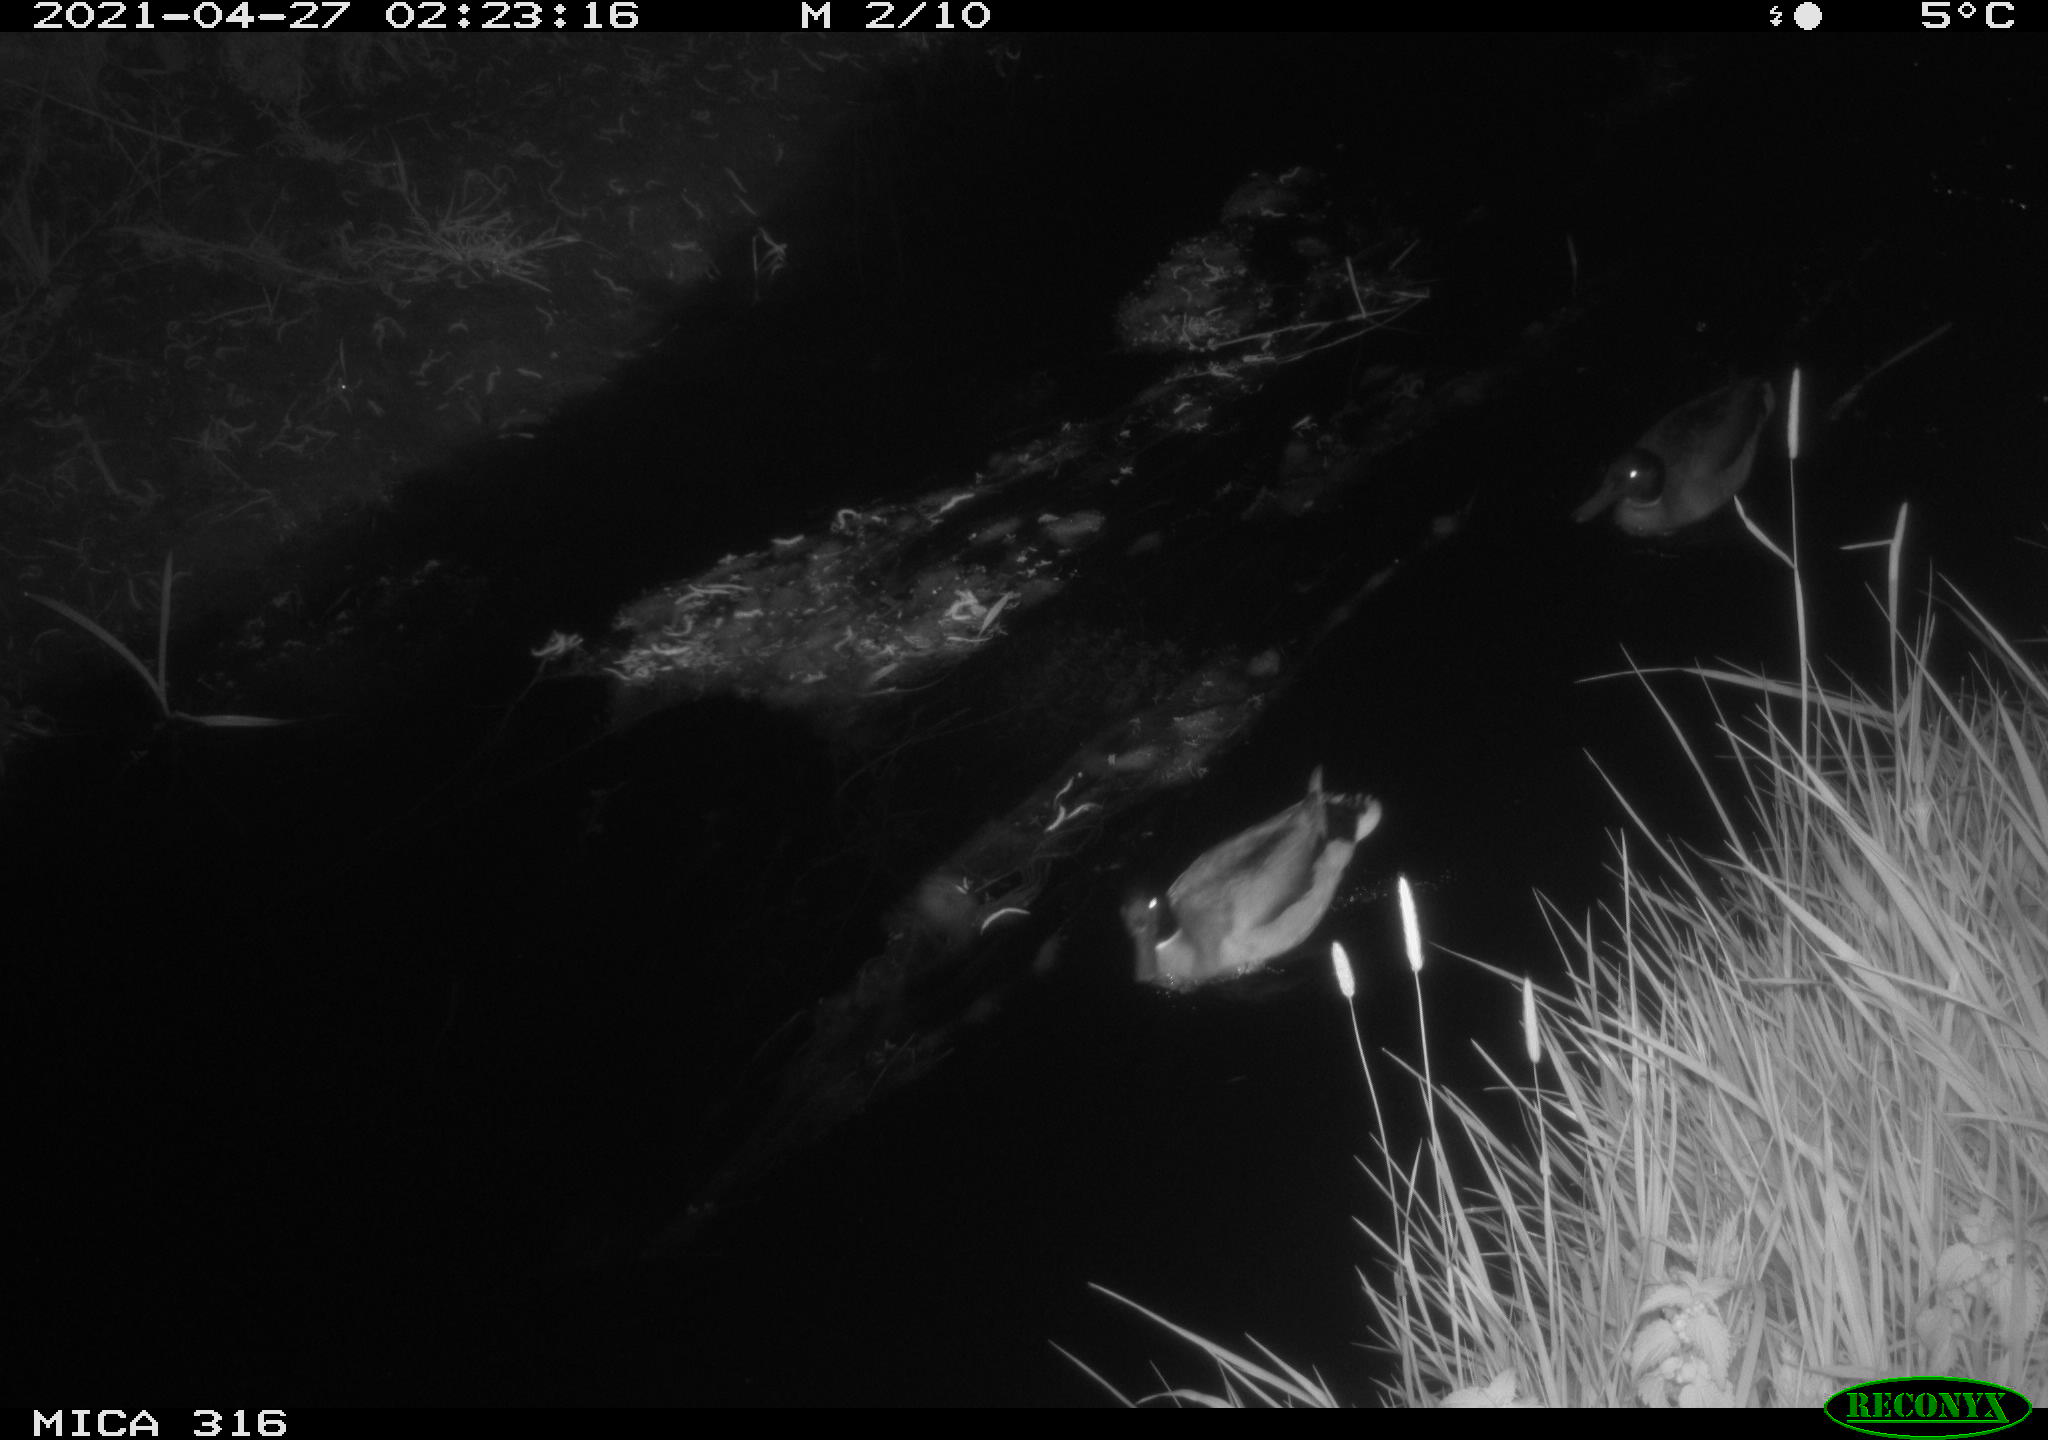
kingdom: Animalia
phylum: Chordata
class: Aves
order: Anseriformes
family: Anatidae
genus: Anas
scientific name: Anas platyrhynchos
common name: Mallard
